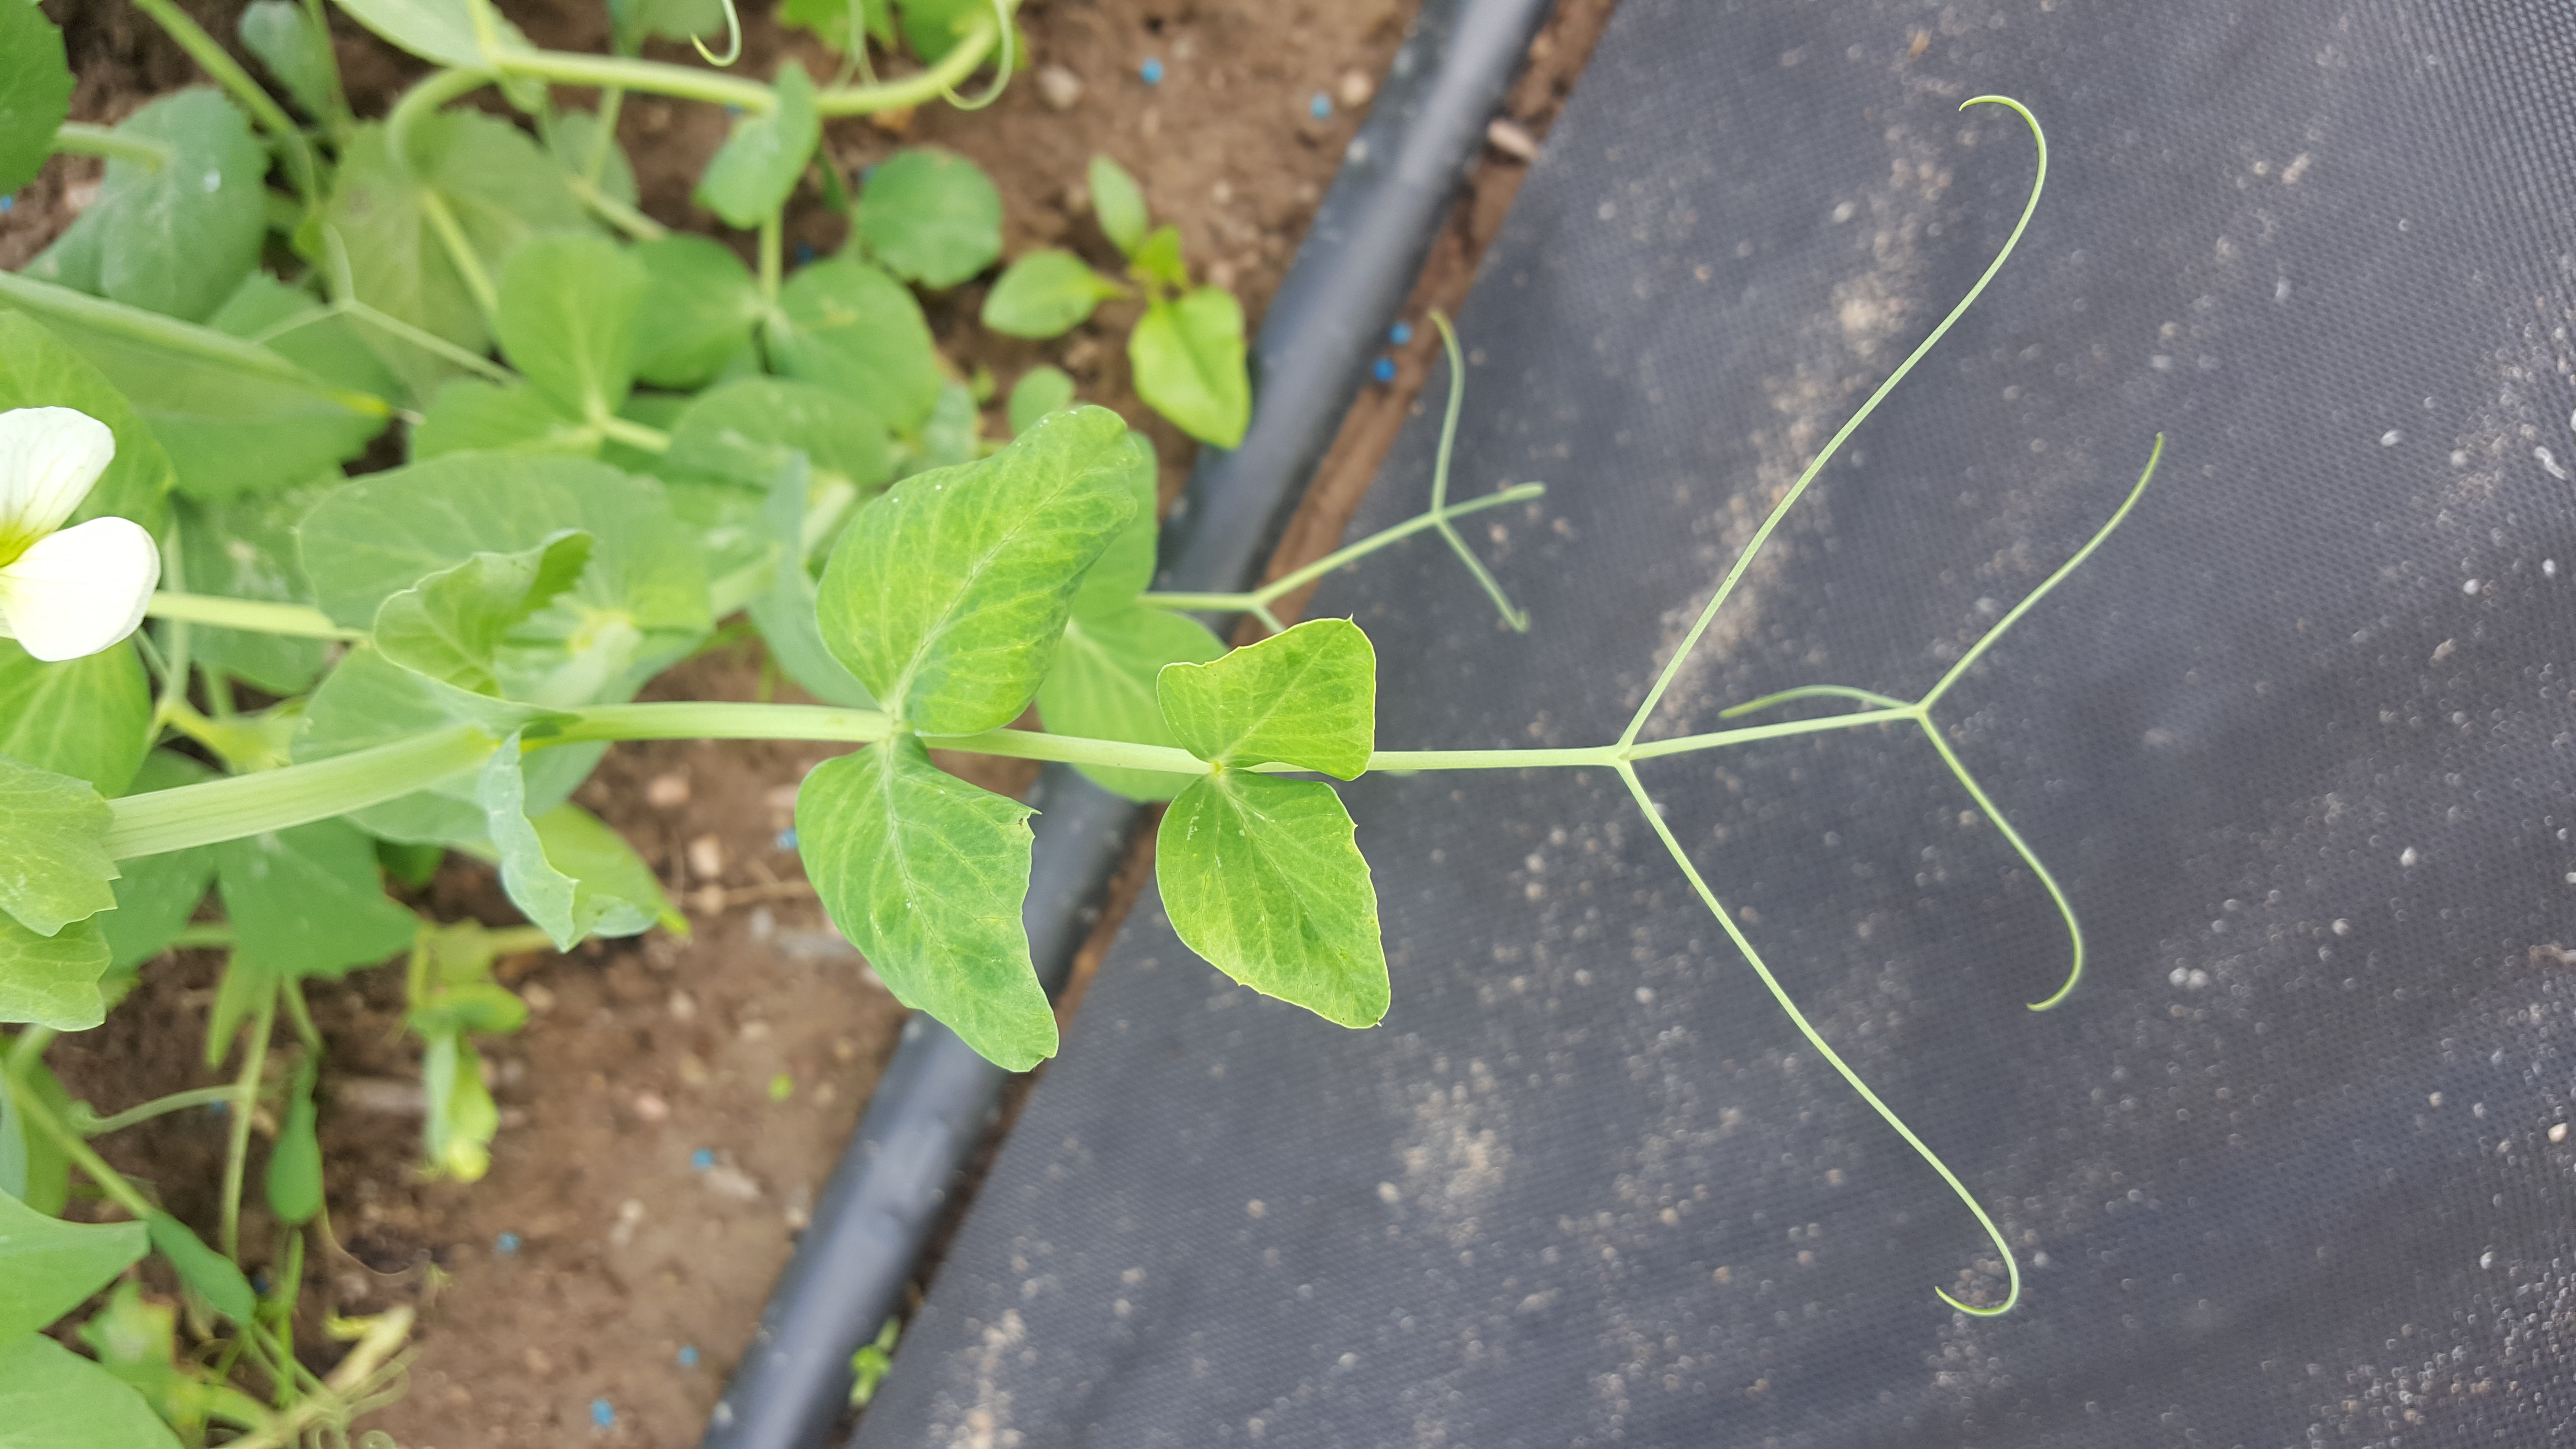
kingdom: Plantae
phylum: Tracheophyta
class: Magnoliopsida
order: Fabales
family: Fabaceae
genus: Lathyrus
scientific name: Lathyrus oleraceus
